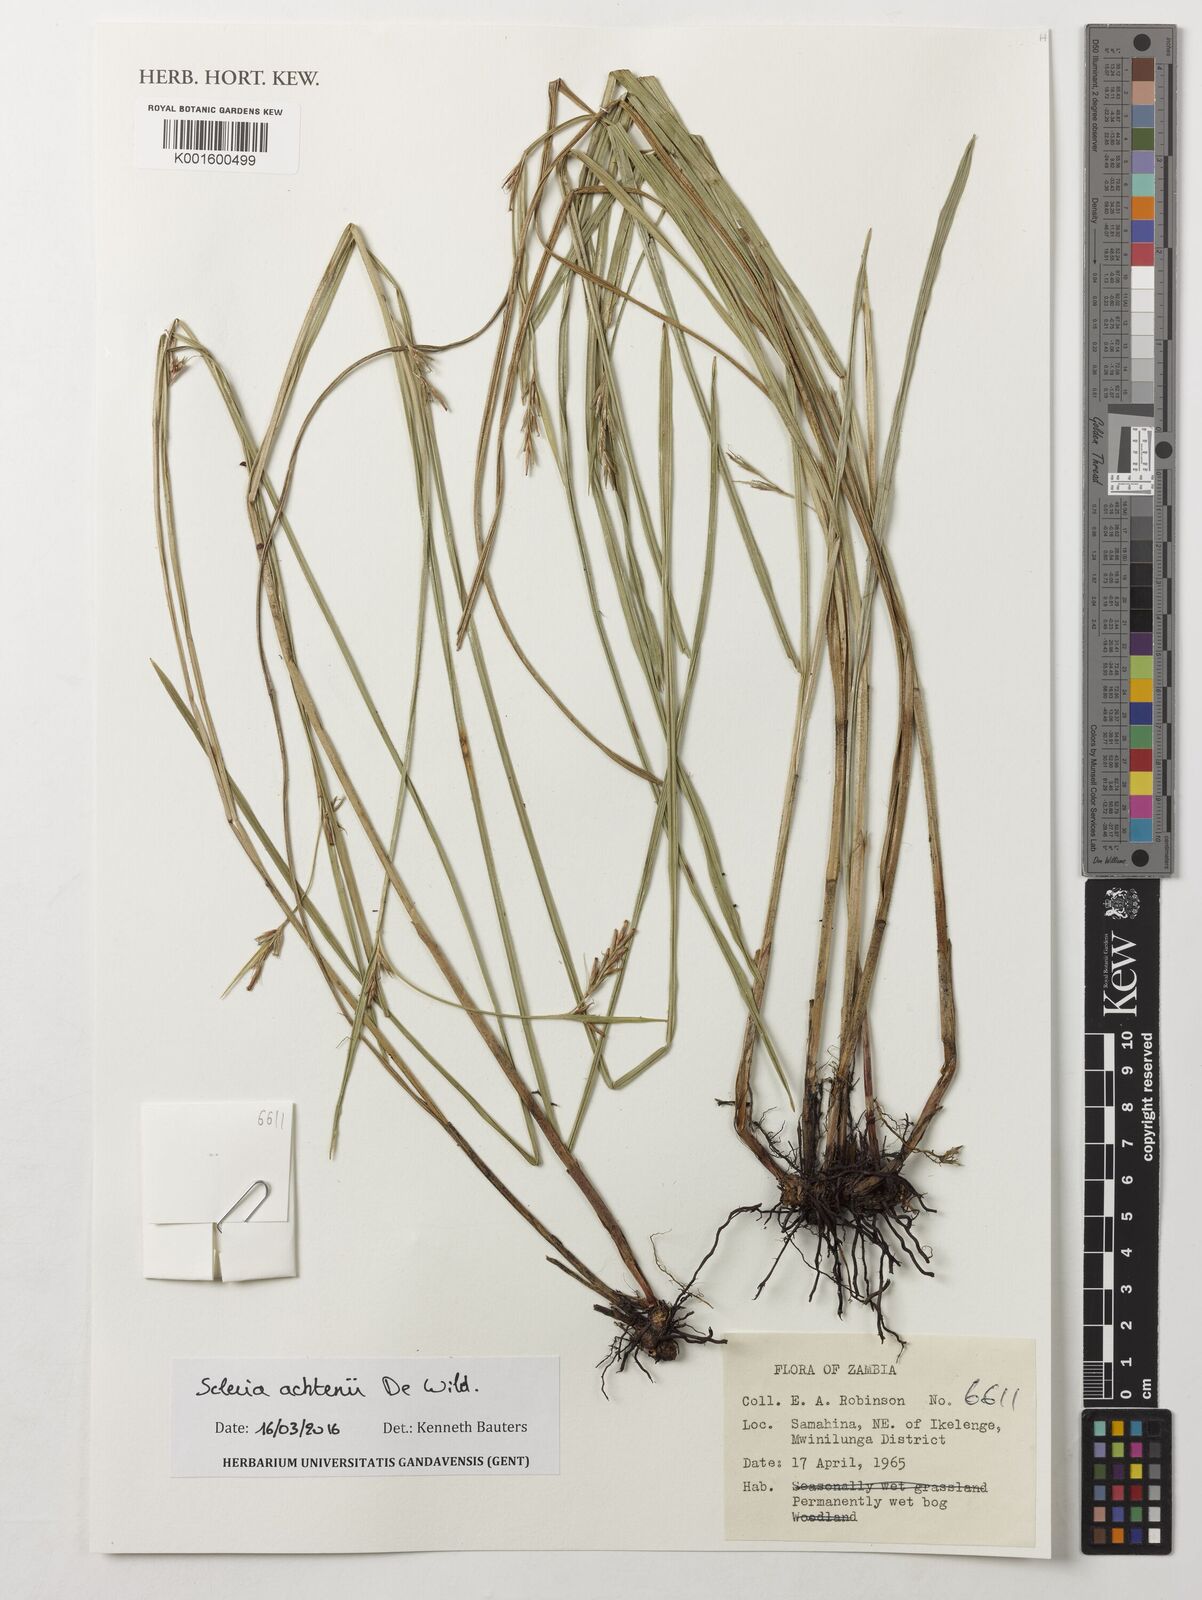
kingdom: Plantae
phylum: Tracheophyta
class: Liliopsida
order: Poales
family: Cyperaceae
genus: Scleria
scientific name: Scleria achtenii
